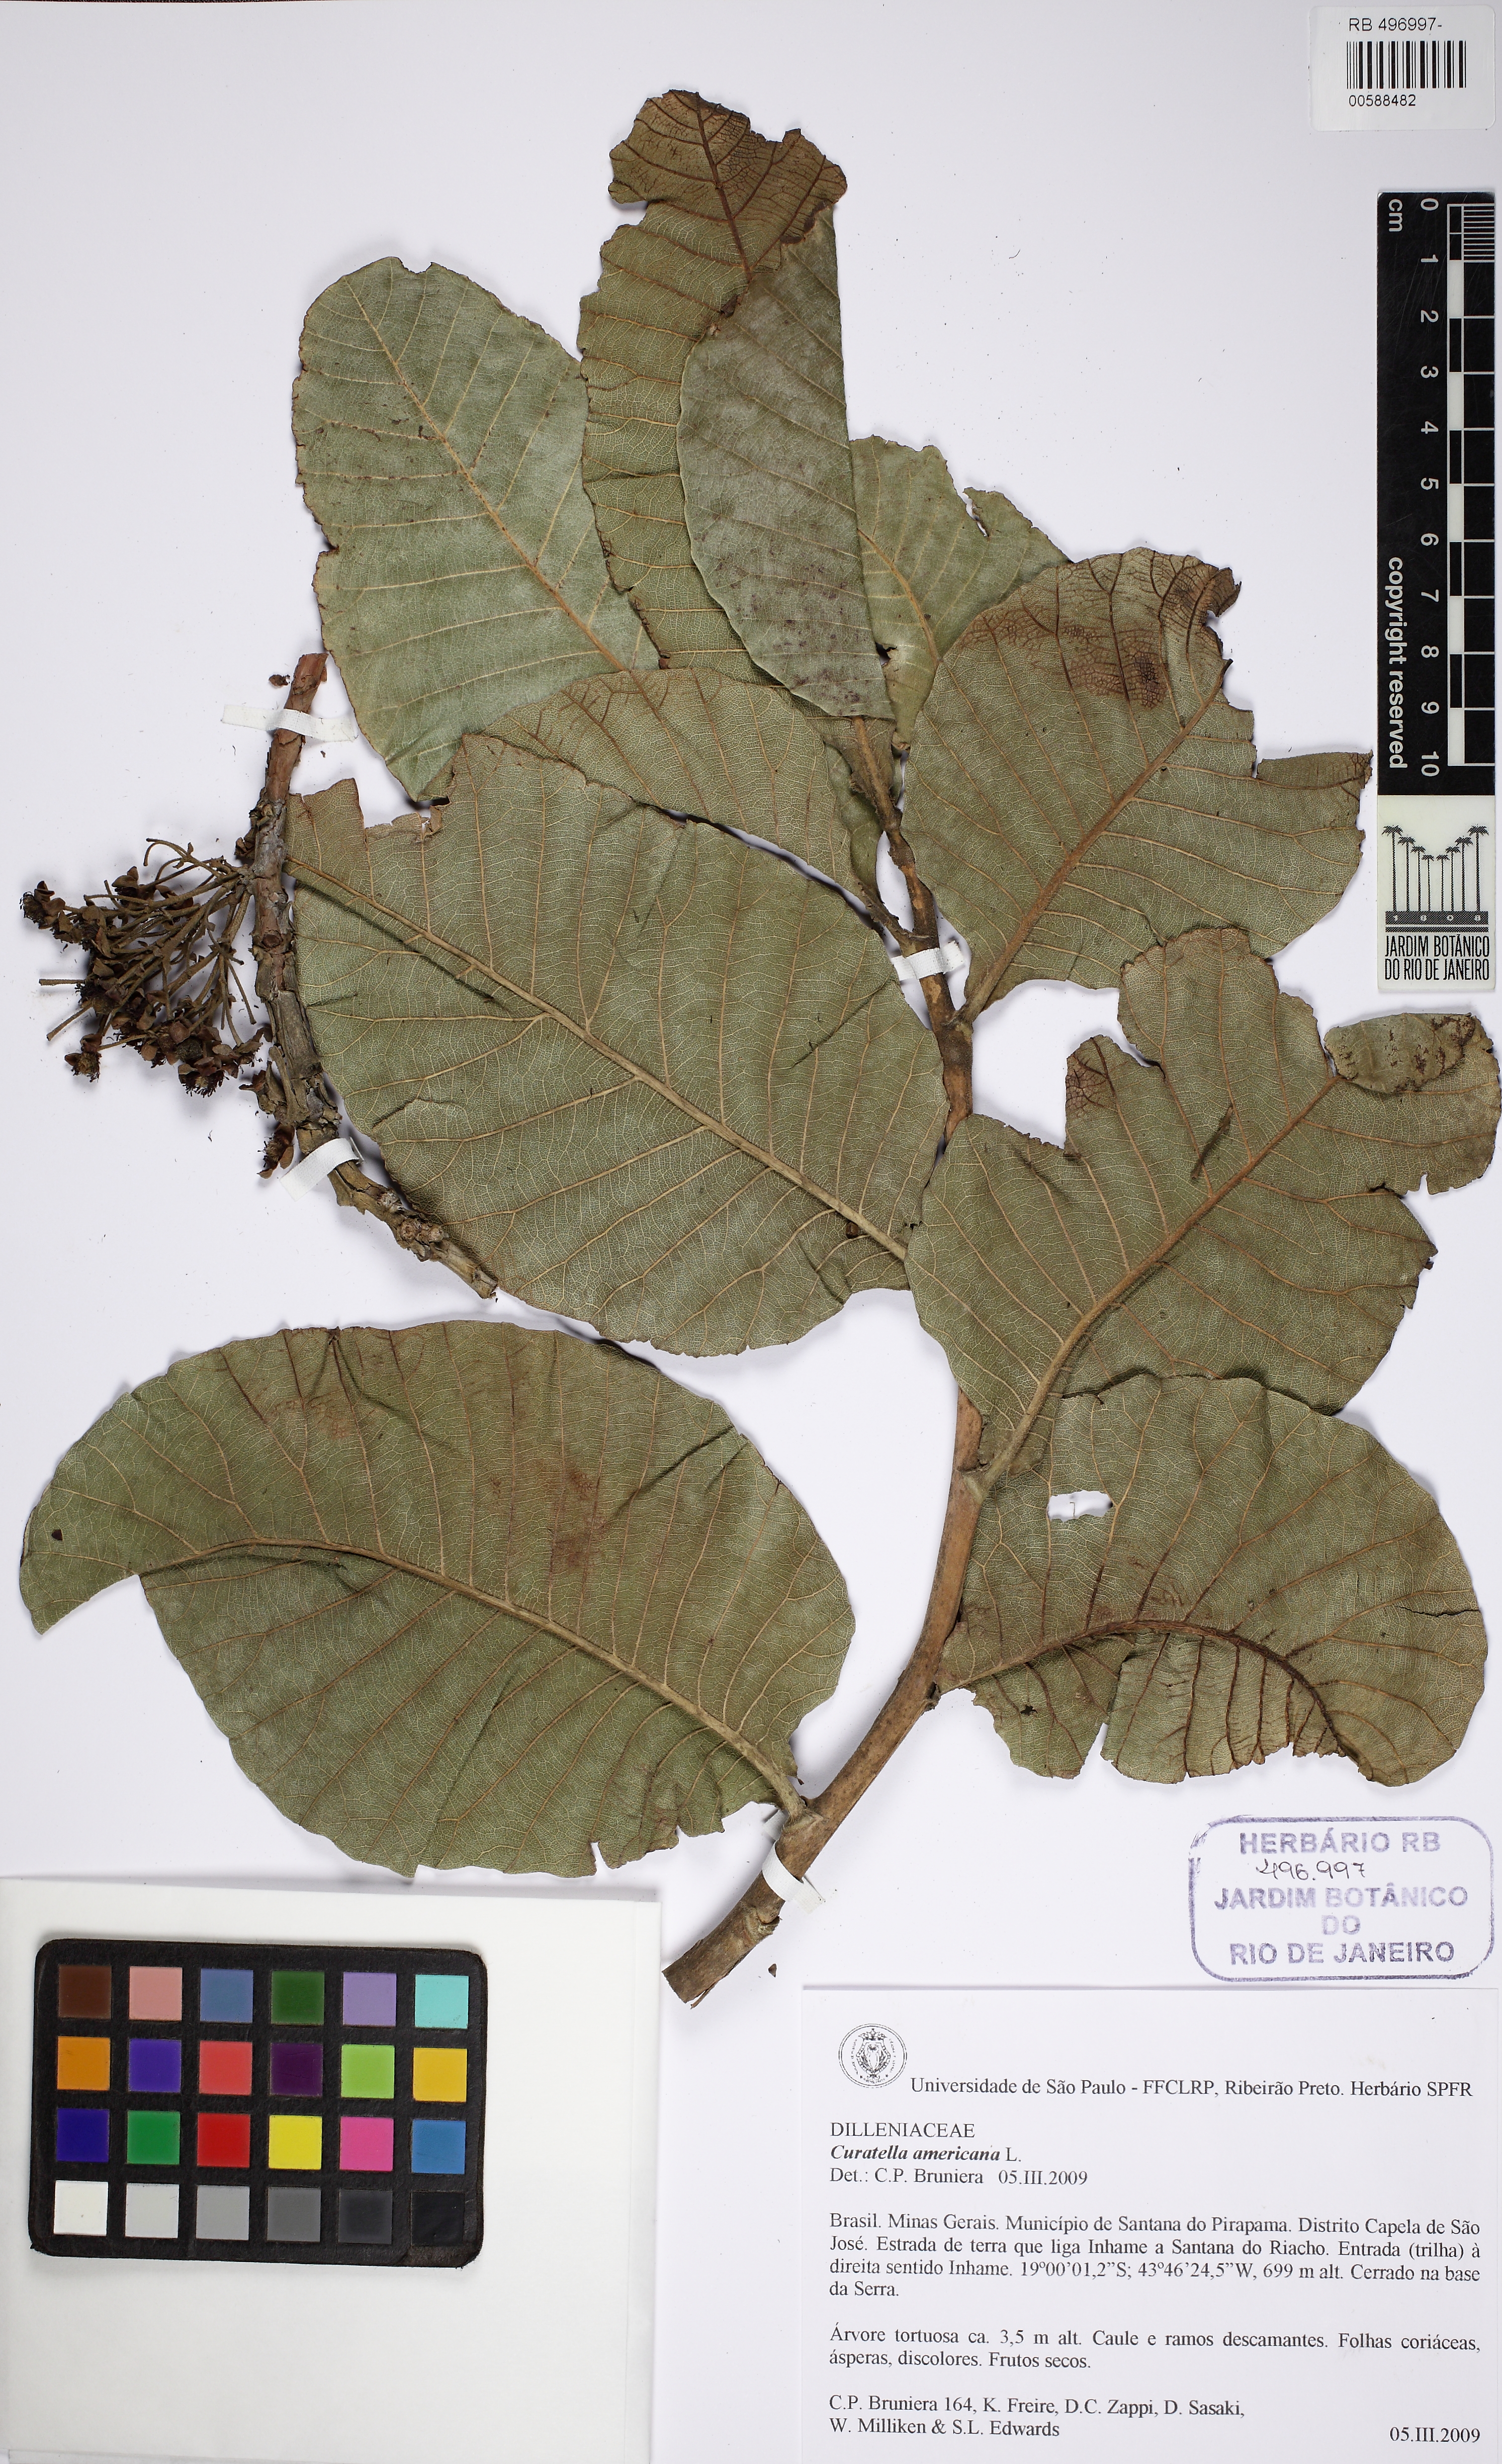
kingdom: Plantae
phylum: Tracheophyta
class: Magnoliopsida
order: Dilleniales
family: Dilleniaceae
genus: Curatella
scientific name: Curatella americana
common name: Sandpaper tree
